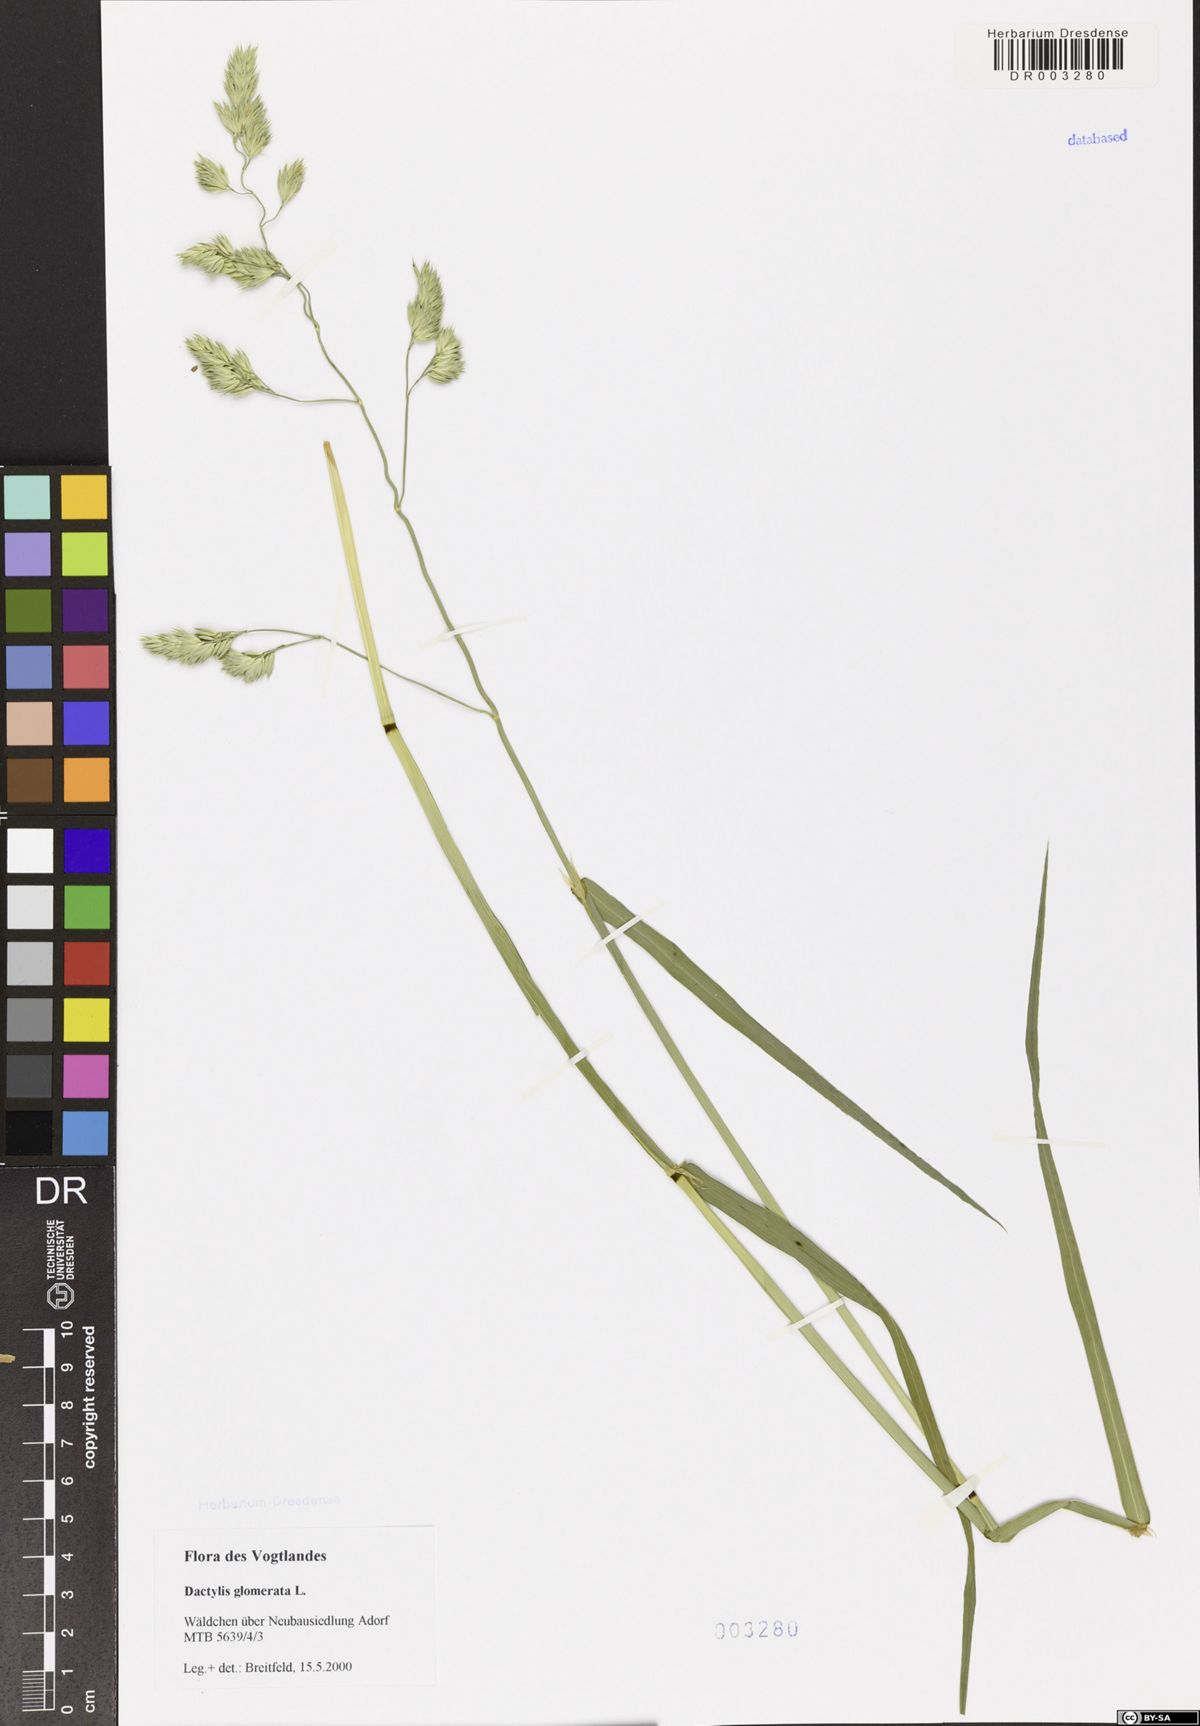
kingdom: Plantae
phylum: Tracheophyta
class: Liliopsida
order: Poales
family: Poaceae
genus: Dactylis
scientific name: Dactylis glomerata
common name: Orchardgrass
